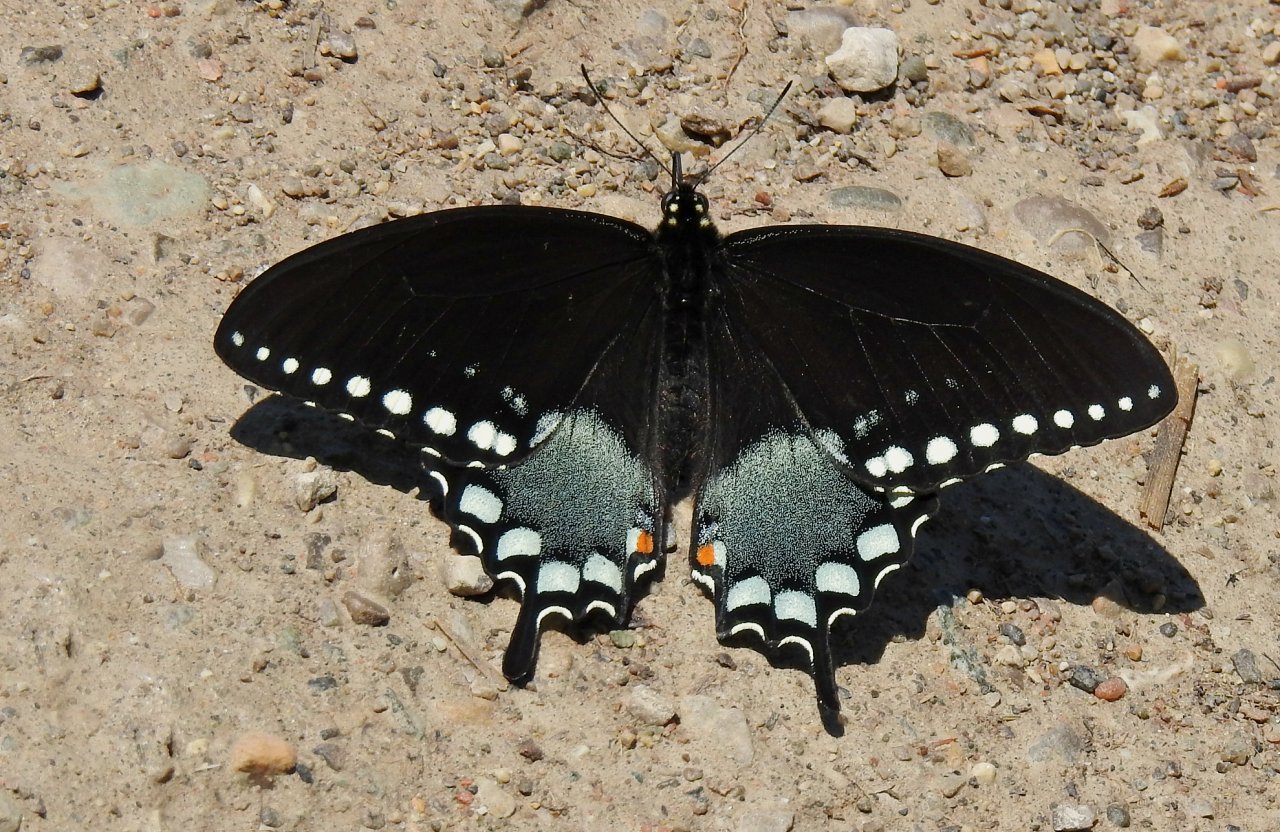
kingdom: Animalia
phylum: Arthropoda
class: Insecta
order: Lepidoptera
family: Papilionidae
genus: Pterourus
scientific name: Pterourus troilus
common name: Spicebush Swallowtail
